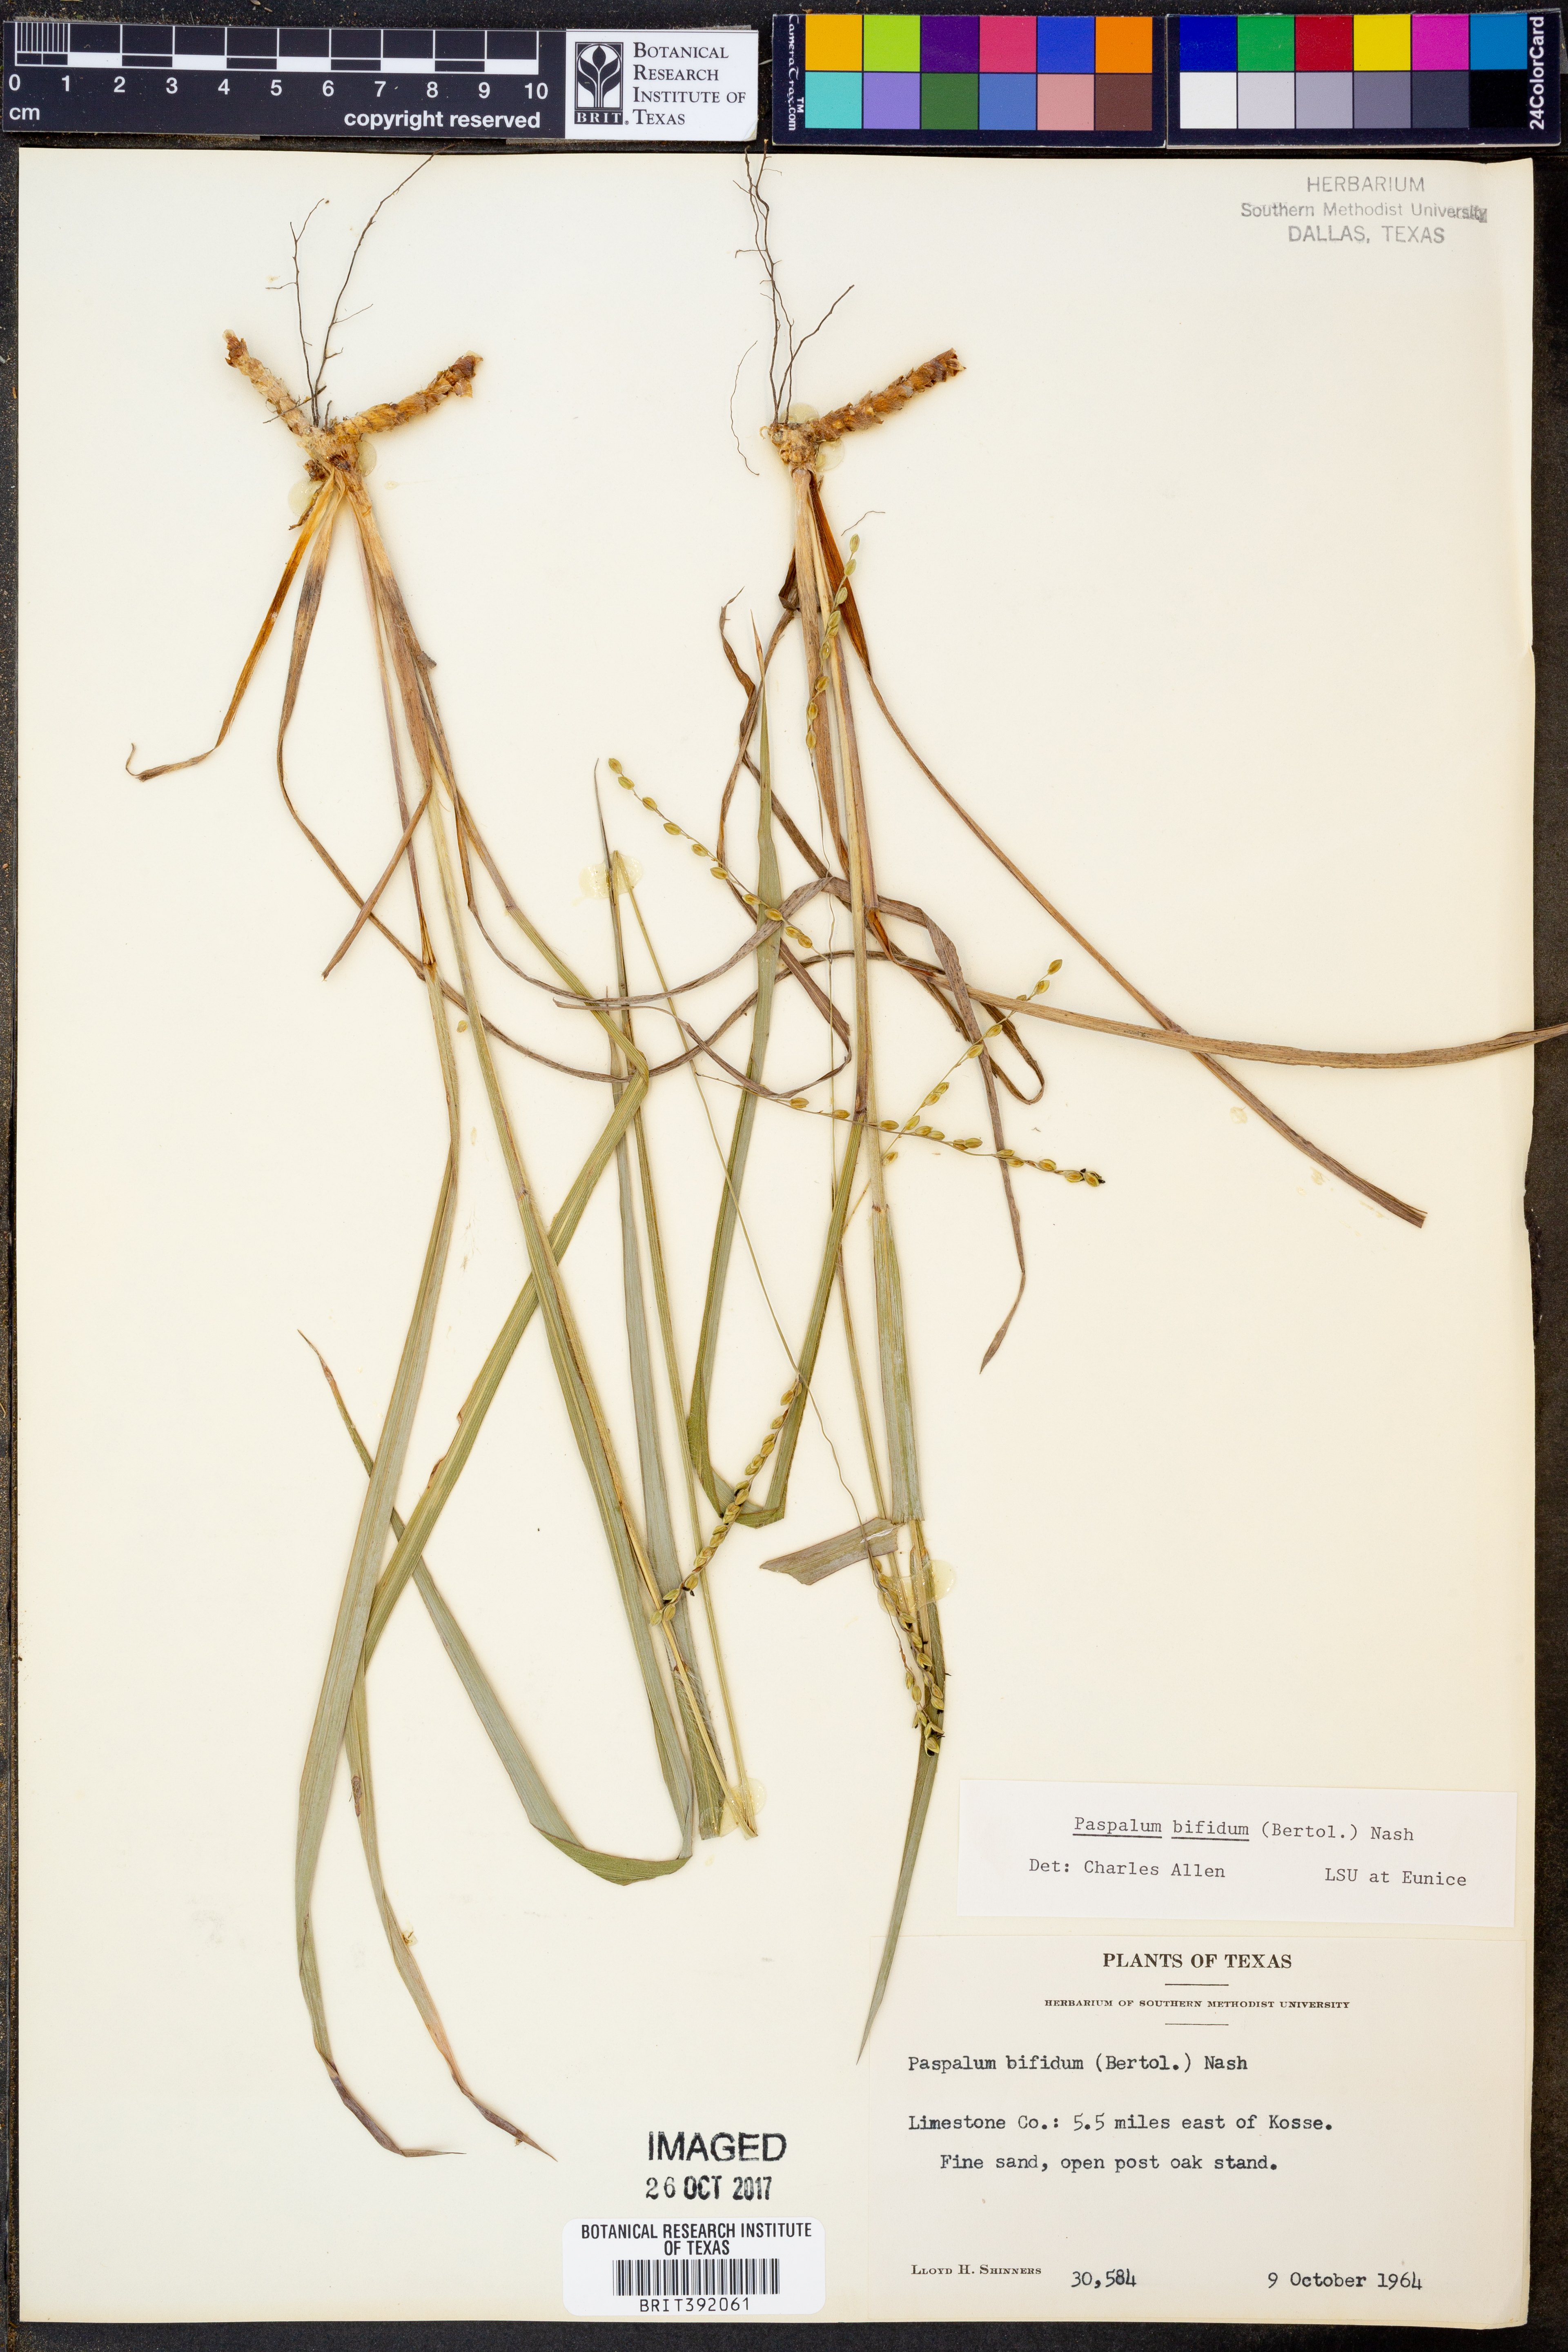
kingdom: Plantae
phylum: Tracheophyta
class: Liliopsida
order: Poales
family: Poaceae
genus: Paspalum
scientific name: Paspalum bifidum
